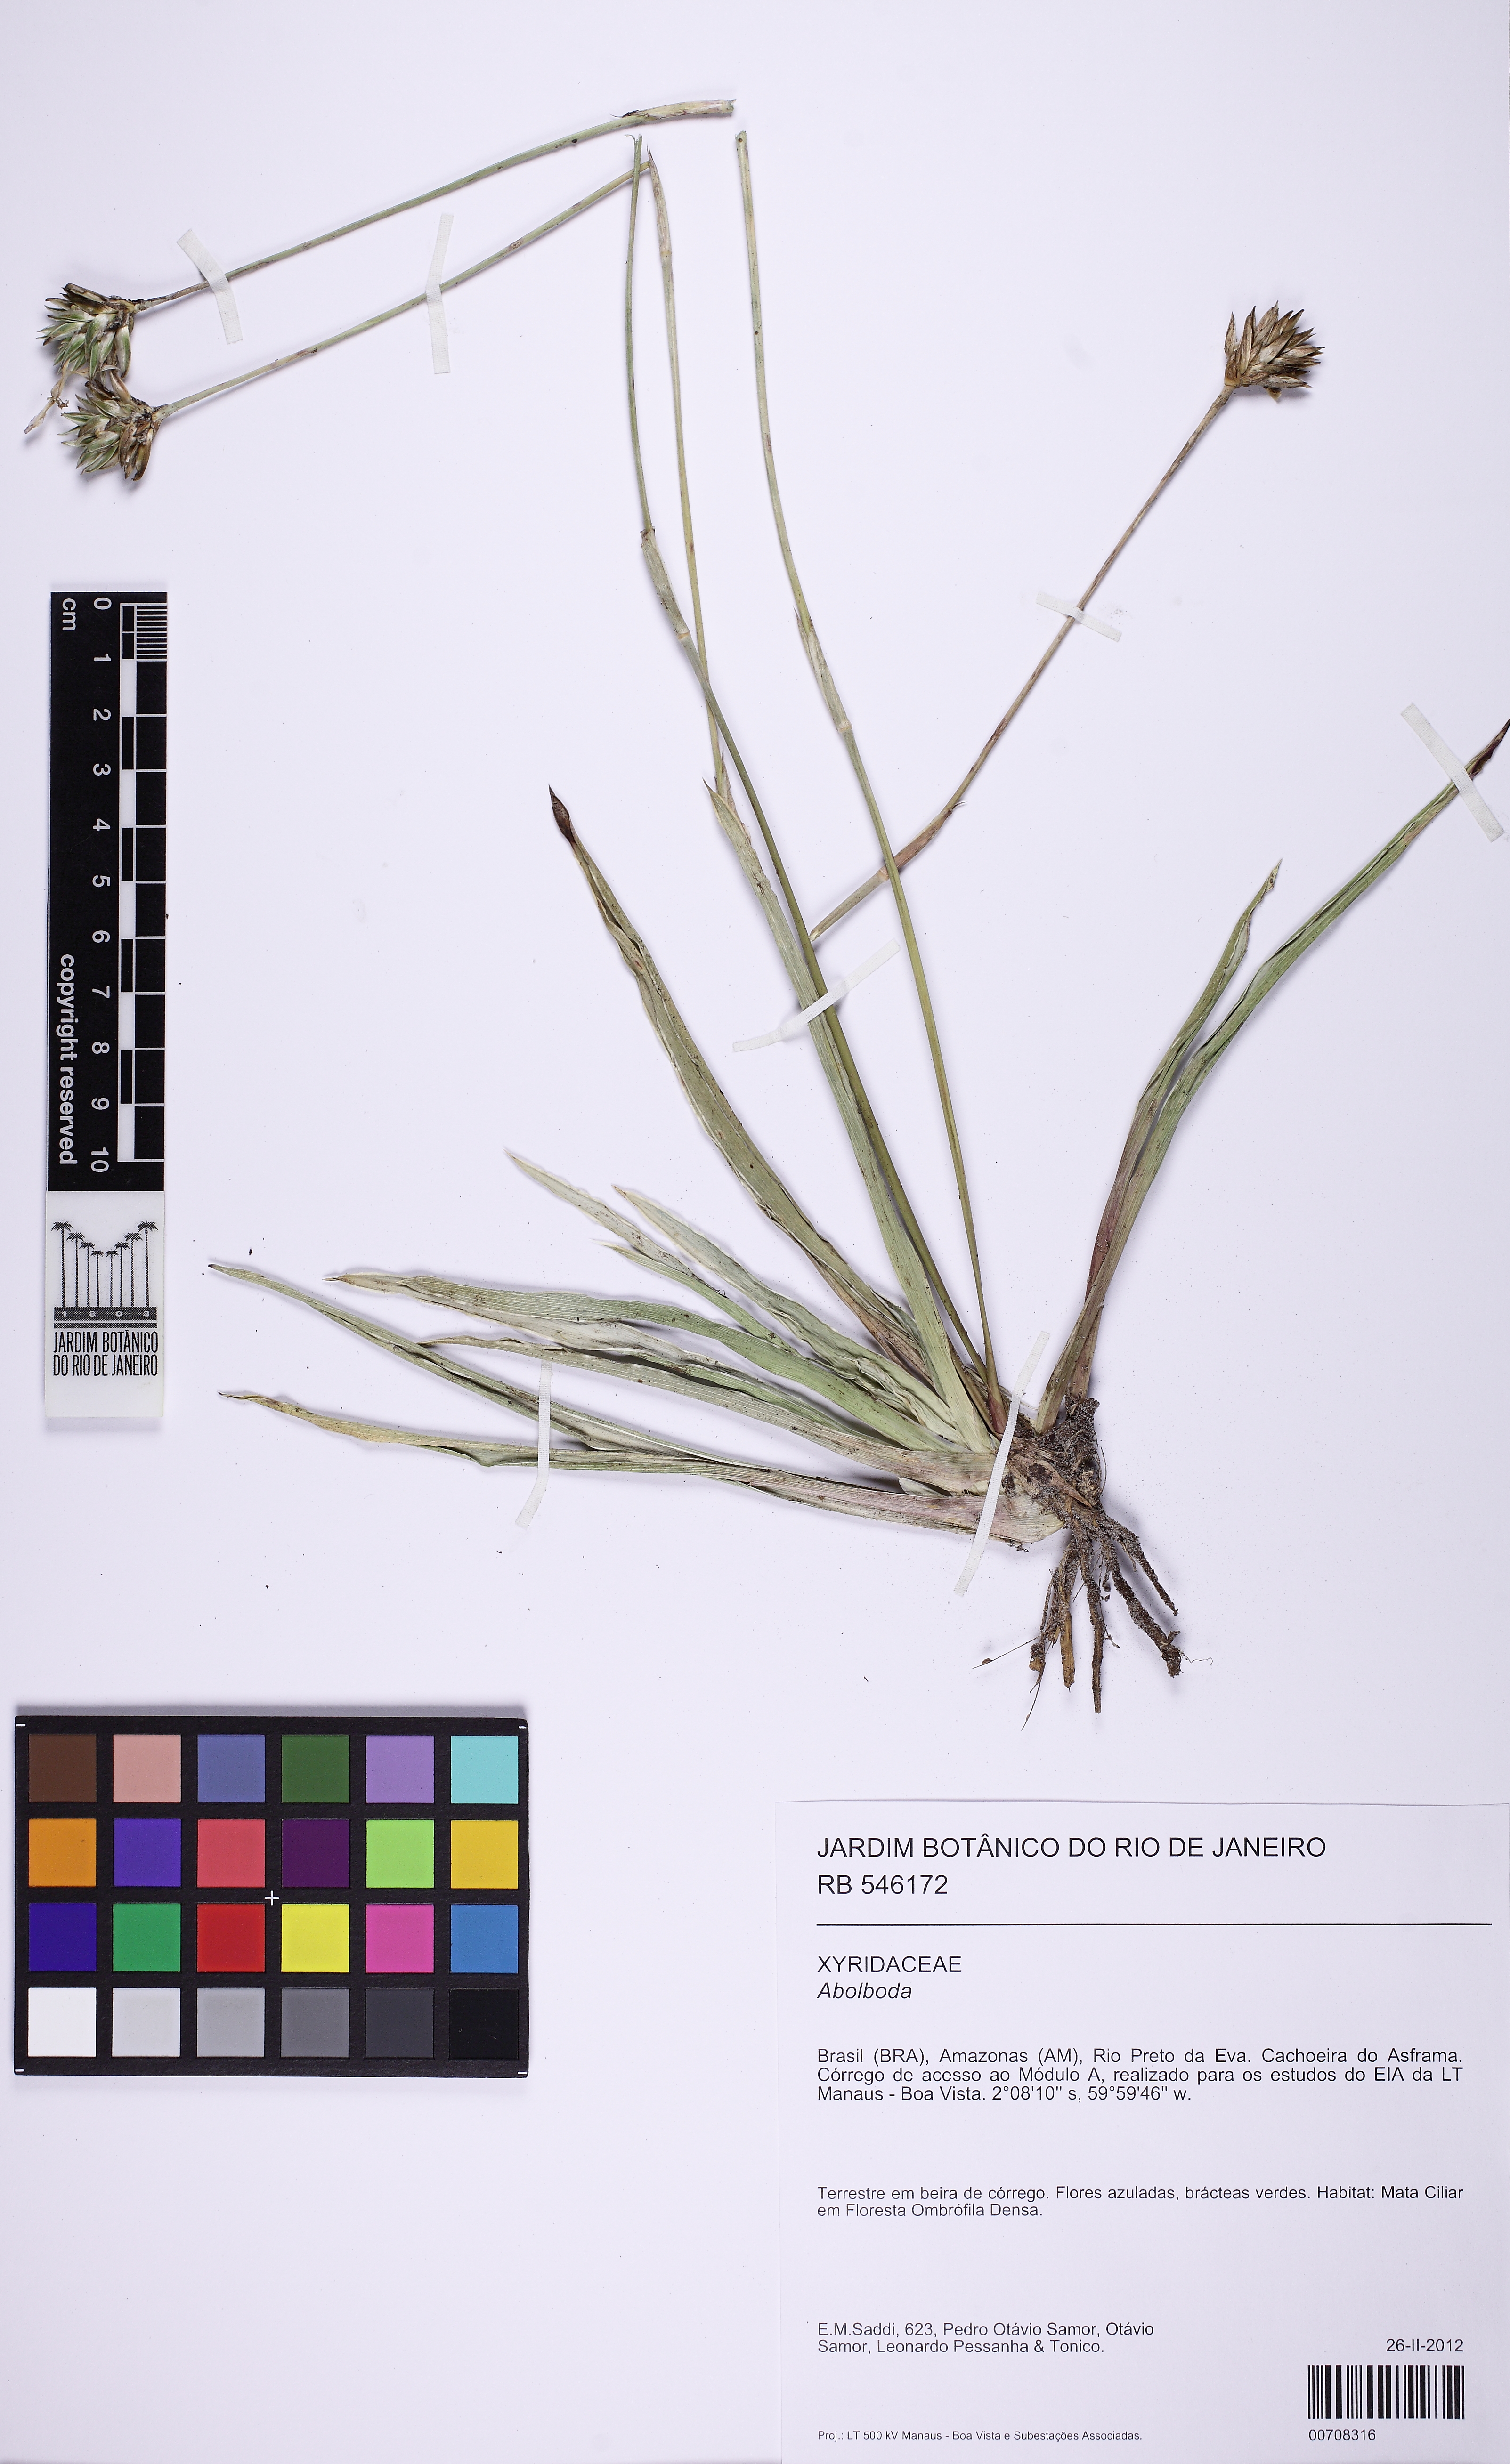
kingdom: Plantae
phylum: Tracheophyta
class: Liliopsida
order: Poales
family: Xyridaceae
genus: Abolboda
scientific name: Abolboda grandis
